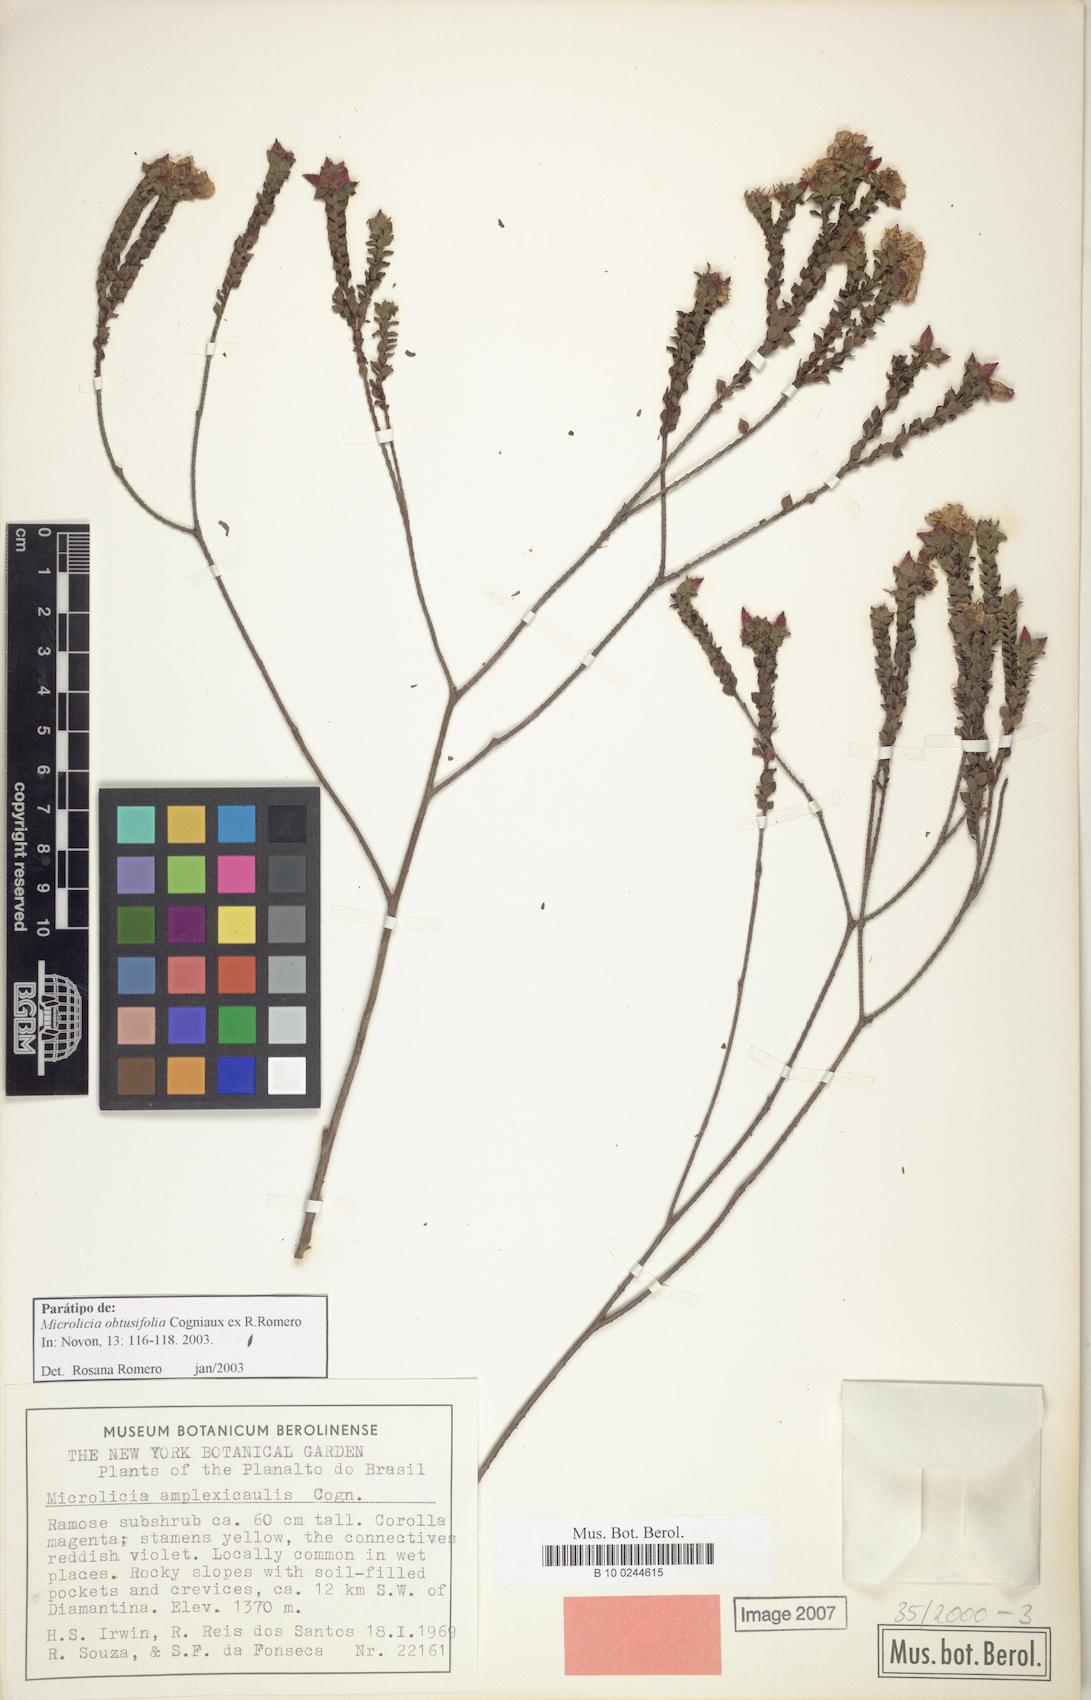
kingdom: Plantae
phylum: Tracheophyta
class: Magnoliopsida
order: Myrtales
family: Melastomataceae
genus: Microlicia
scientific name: Microlicia obtusifolia
